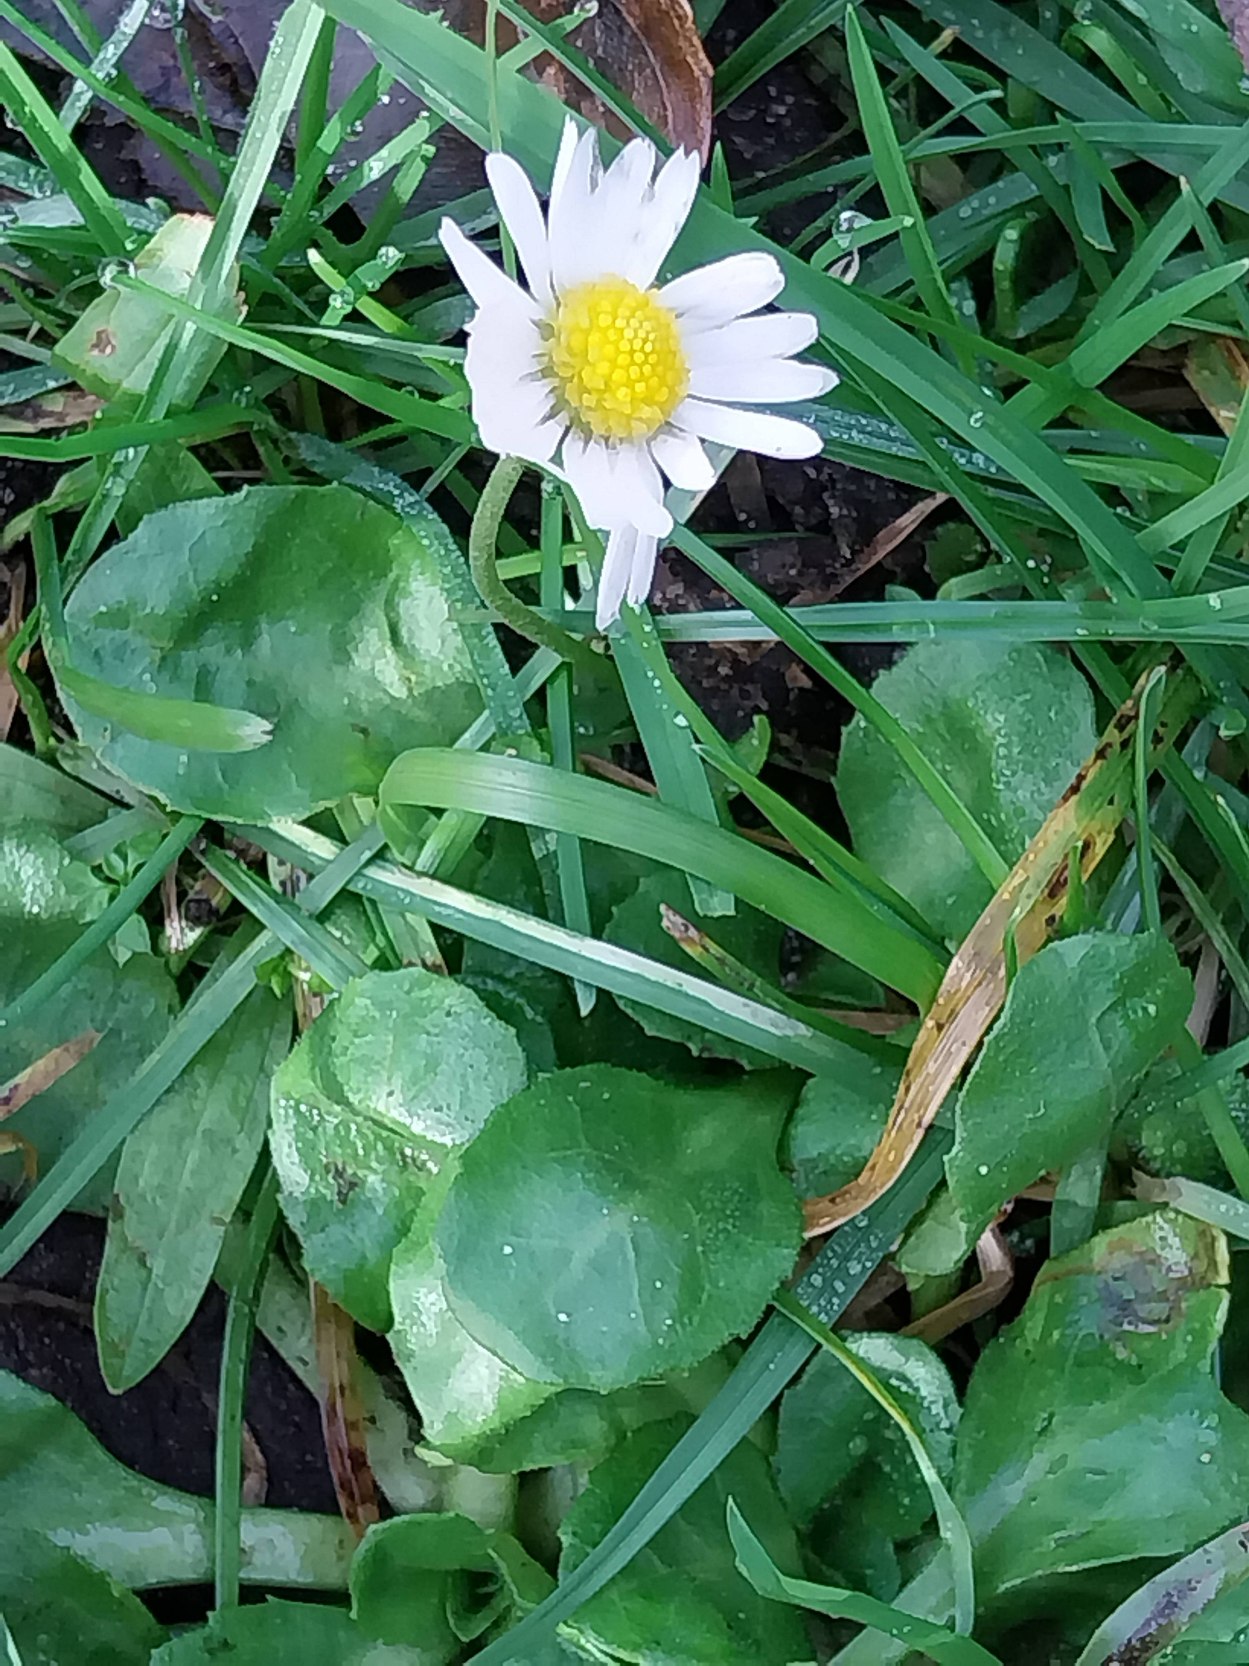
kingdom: Plantae
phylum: Tracheophyta
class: Magnoliopsida
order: Asterales
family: Asteraceae
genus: Bellis
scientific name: Bellis perennis
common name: Tusindfryd
